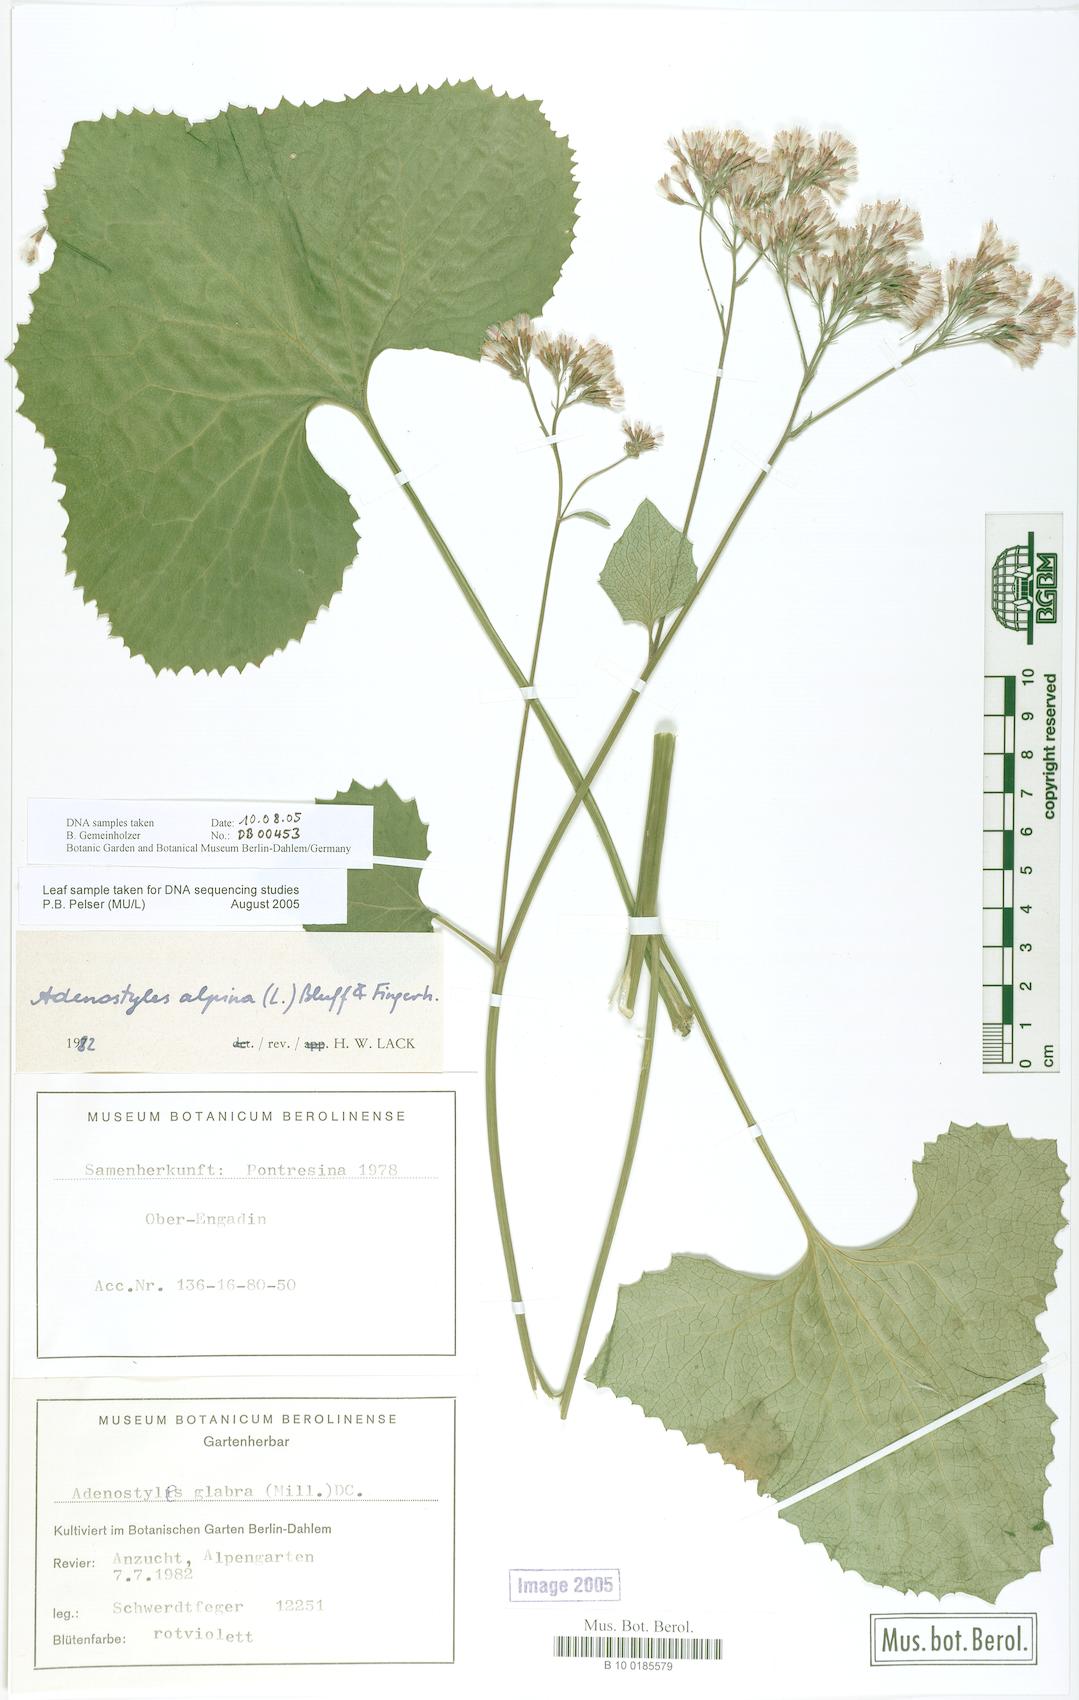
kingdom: Plantae
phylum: Tracheophyta
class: Magnoliopsida
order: Asterales
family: Asteraceae
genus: Adenostyles
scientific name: Adenostyles alpina
